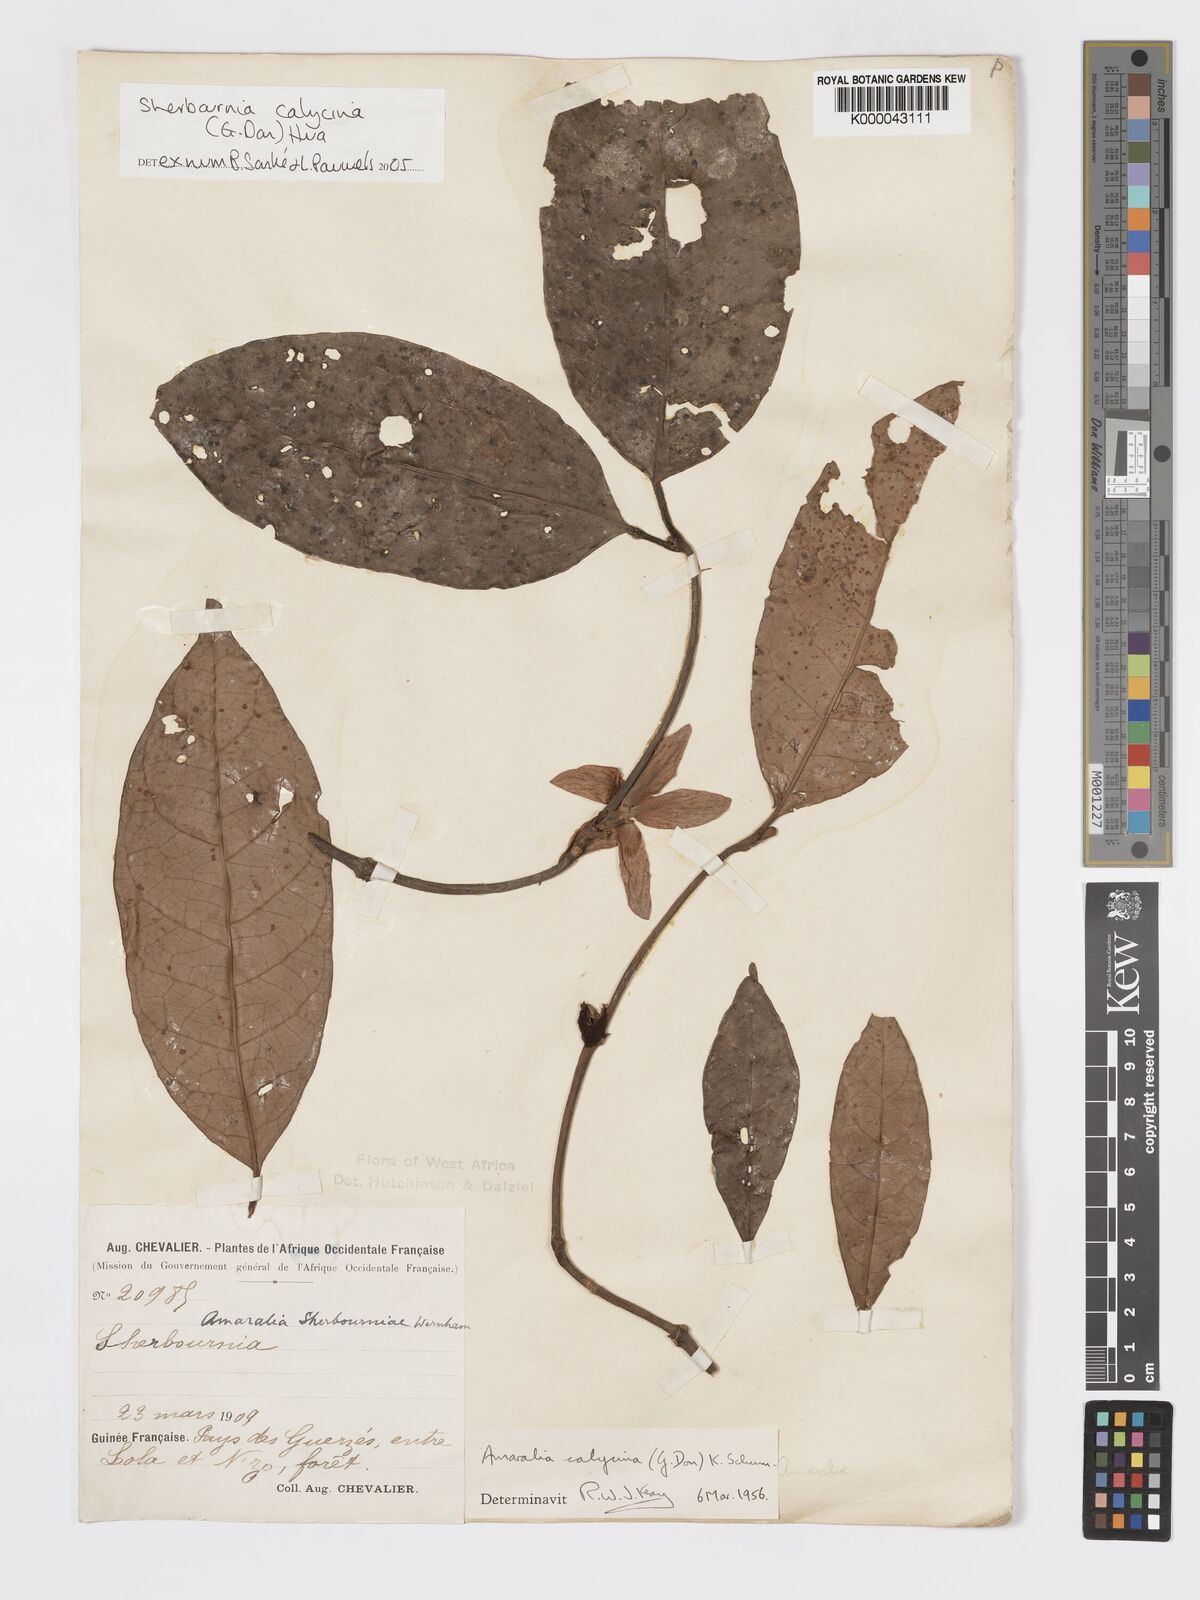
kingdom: Plantae
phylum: Tracheophyta
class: Magnoliopsida
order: Gentianales
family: Rubiaceae
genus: Sherbournia
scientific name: Sherbournia calycina
